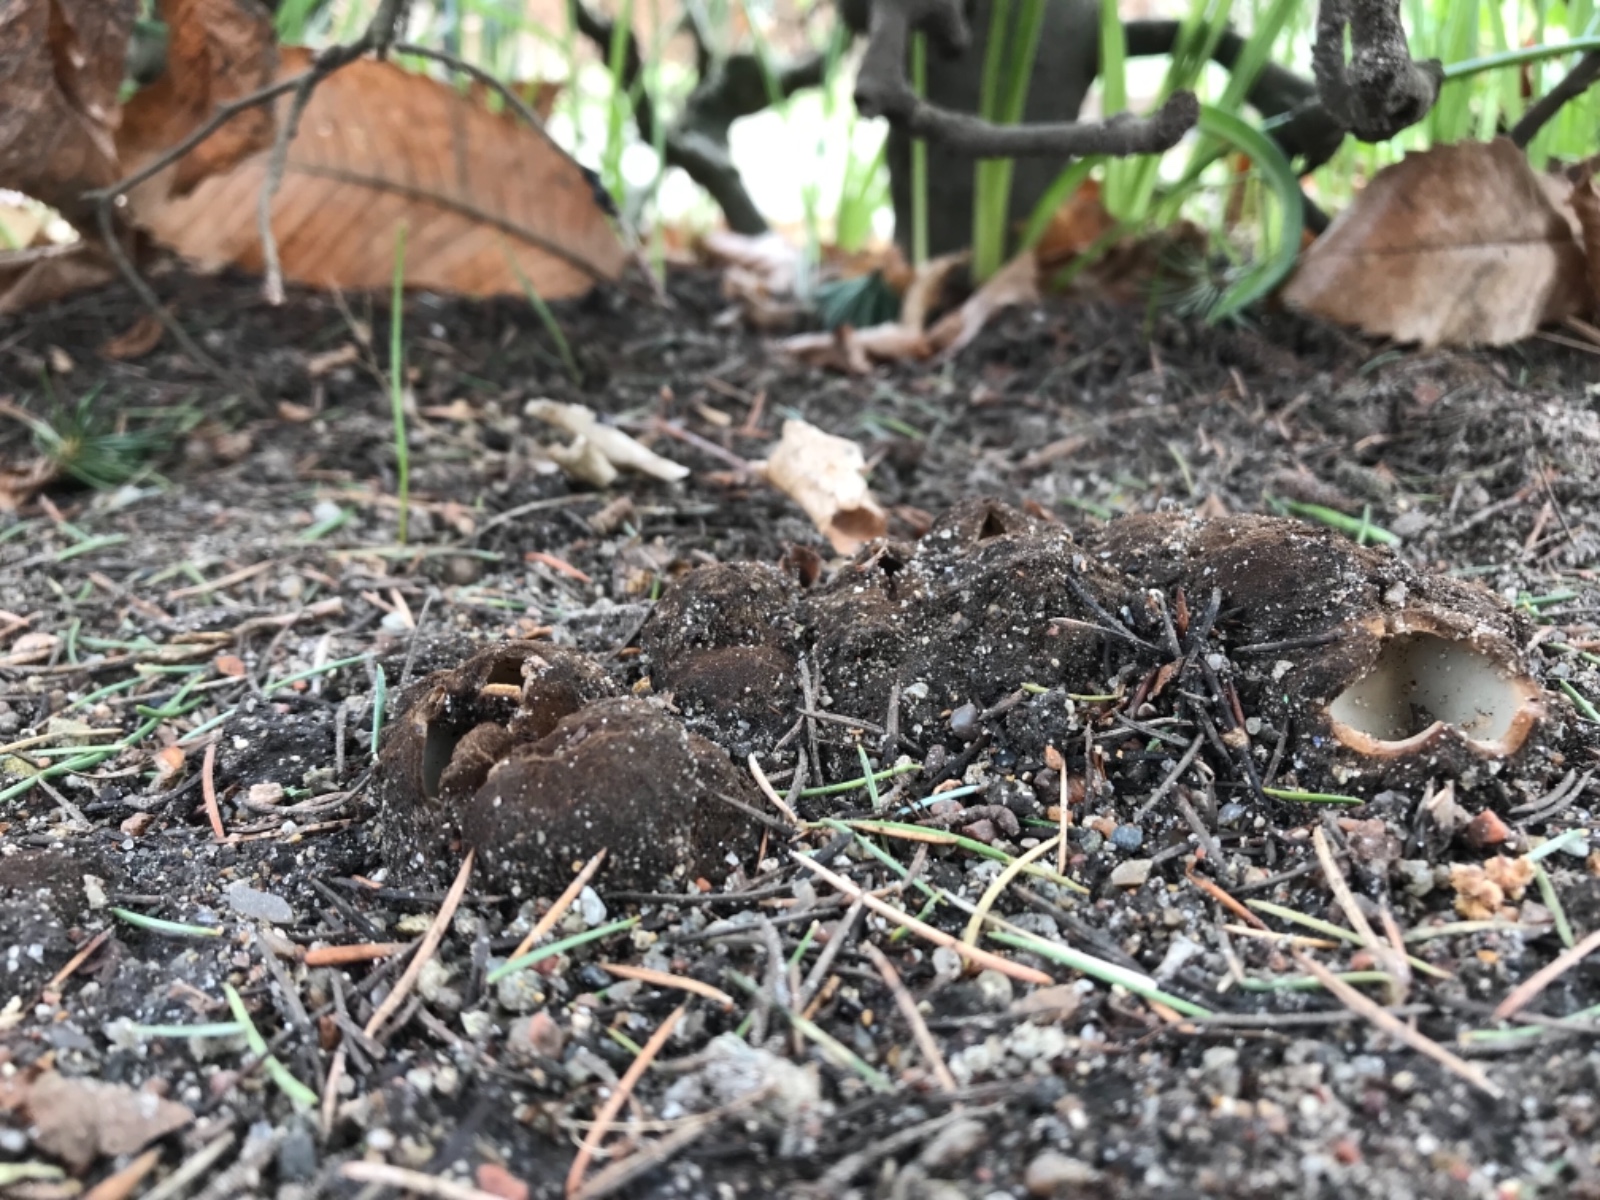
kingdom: Fungi
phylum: Ascomycota
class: Pezizomycetes
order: Pezizales
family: Pyronemataceae
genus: Geopora
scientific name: Geopora sumneriana
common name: vår-jordbæger
